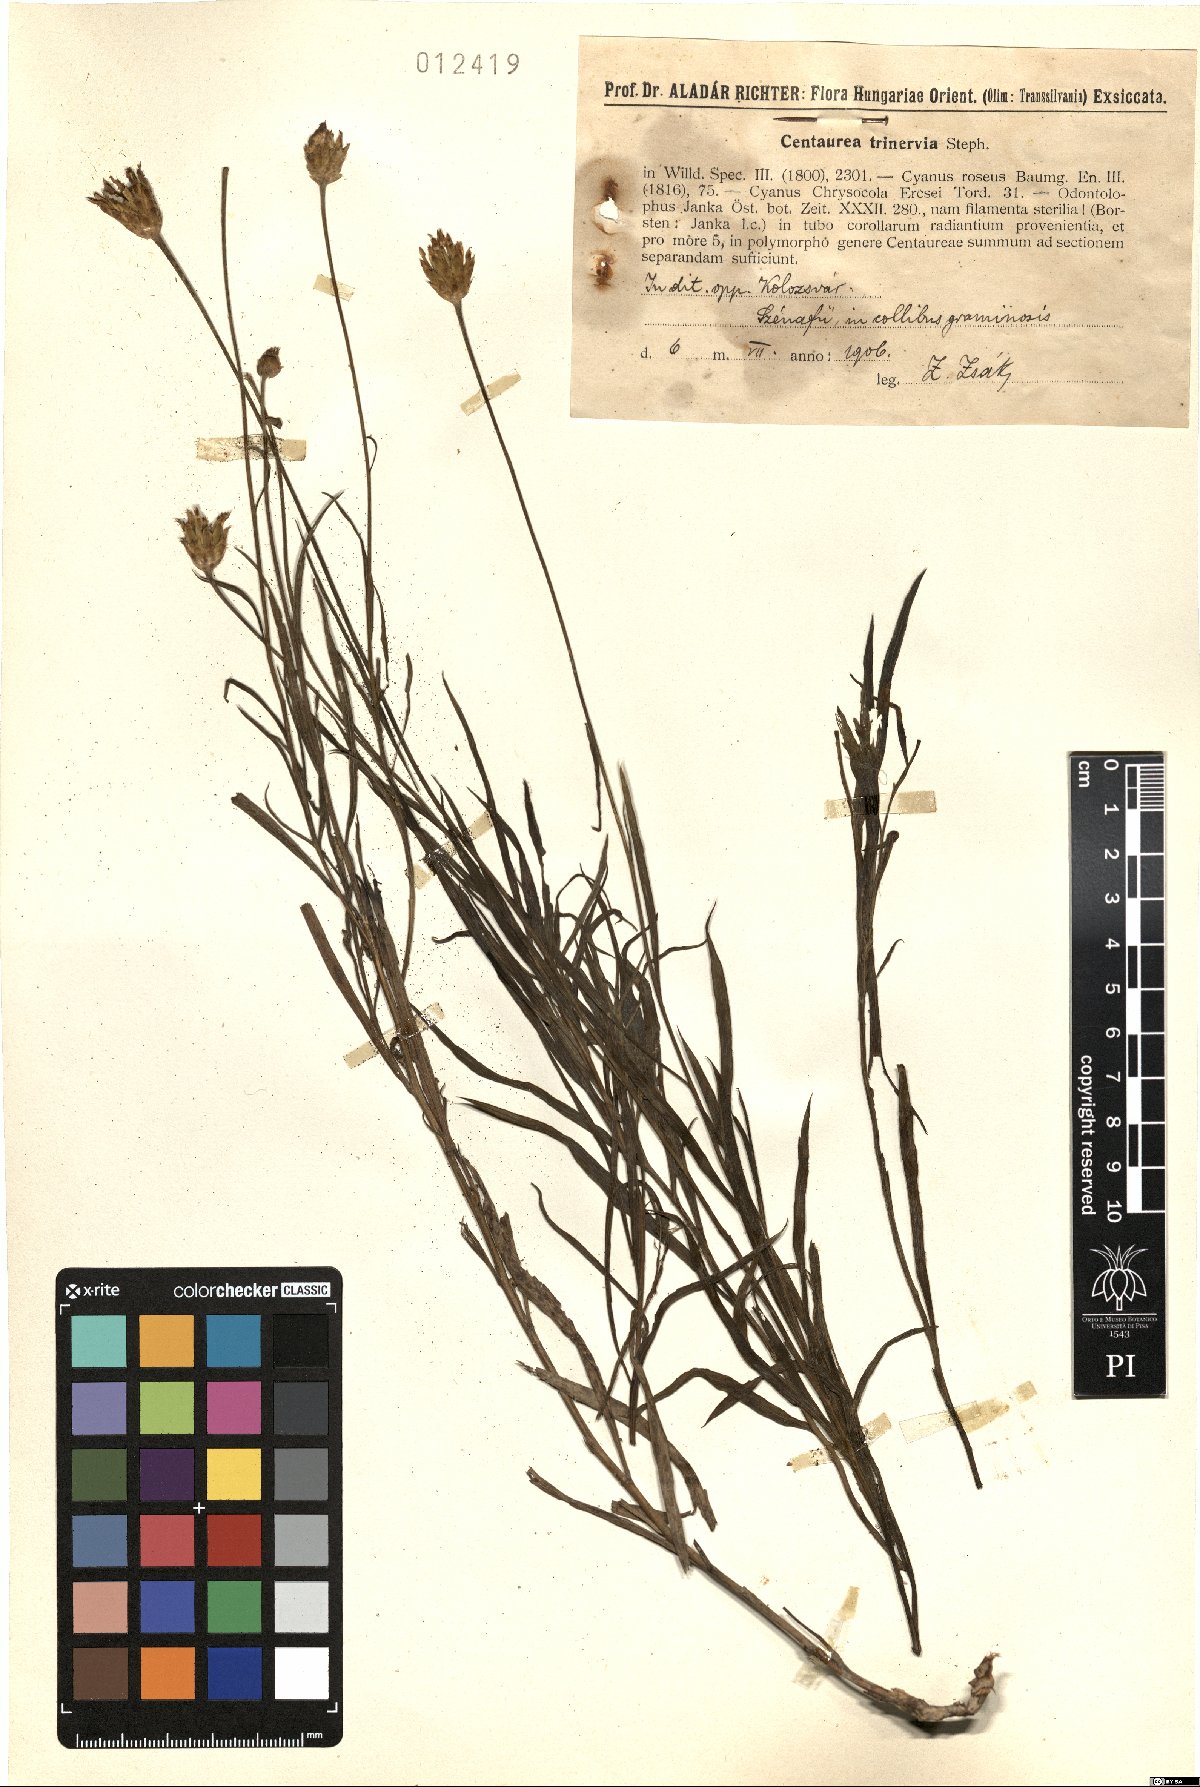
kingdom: Plantae
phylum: Tracheophyta
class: Magnoliopsida
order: Asterales
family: Asteraceae
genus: Psephellus
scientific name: Psephellus trinervius
